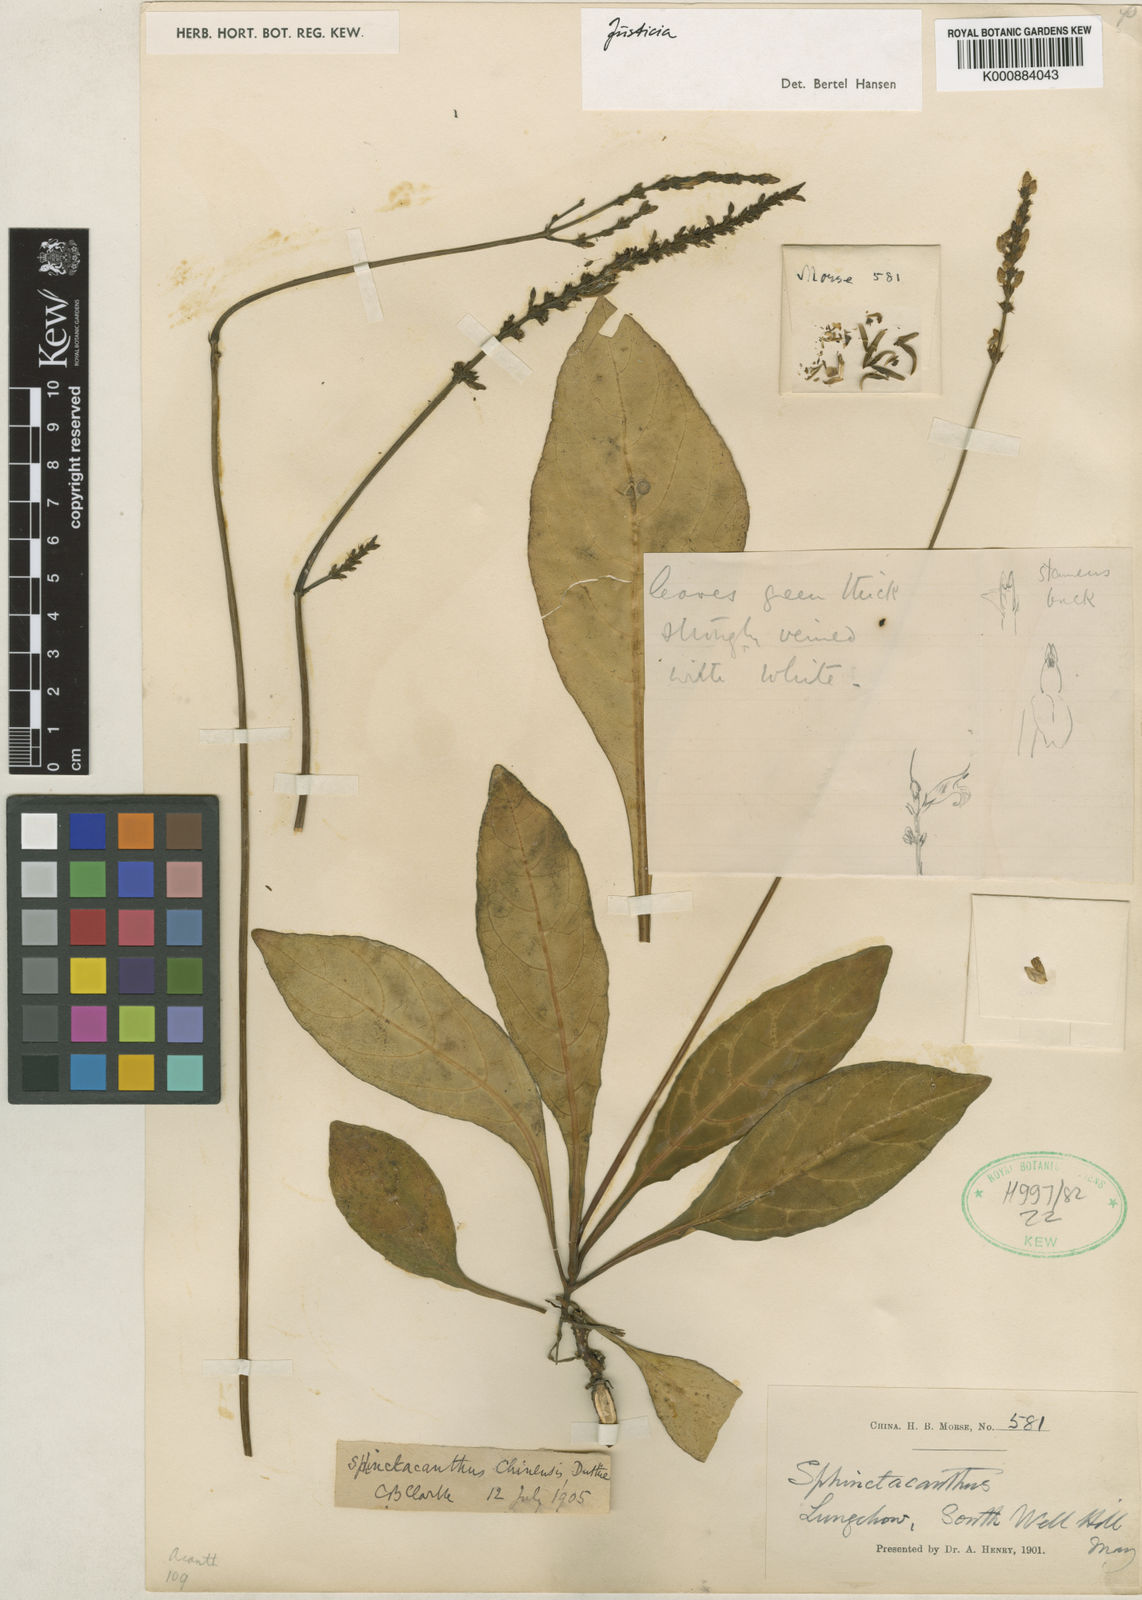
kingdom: Plantae
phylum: Tracheophyta
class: Magnoliopsida
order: Lamiales
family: Acanthaceae
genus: Justicia
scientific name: Justicia
